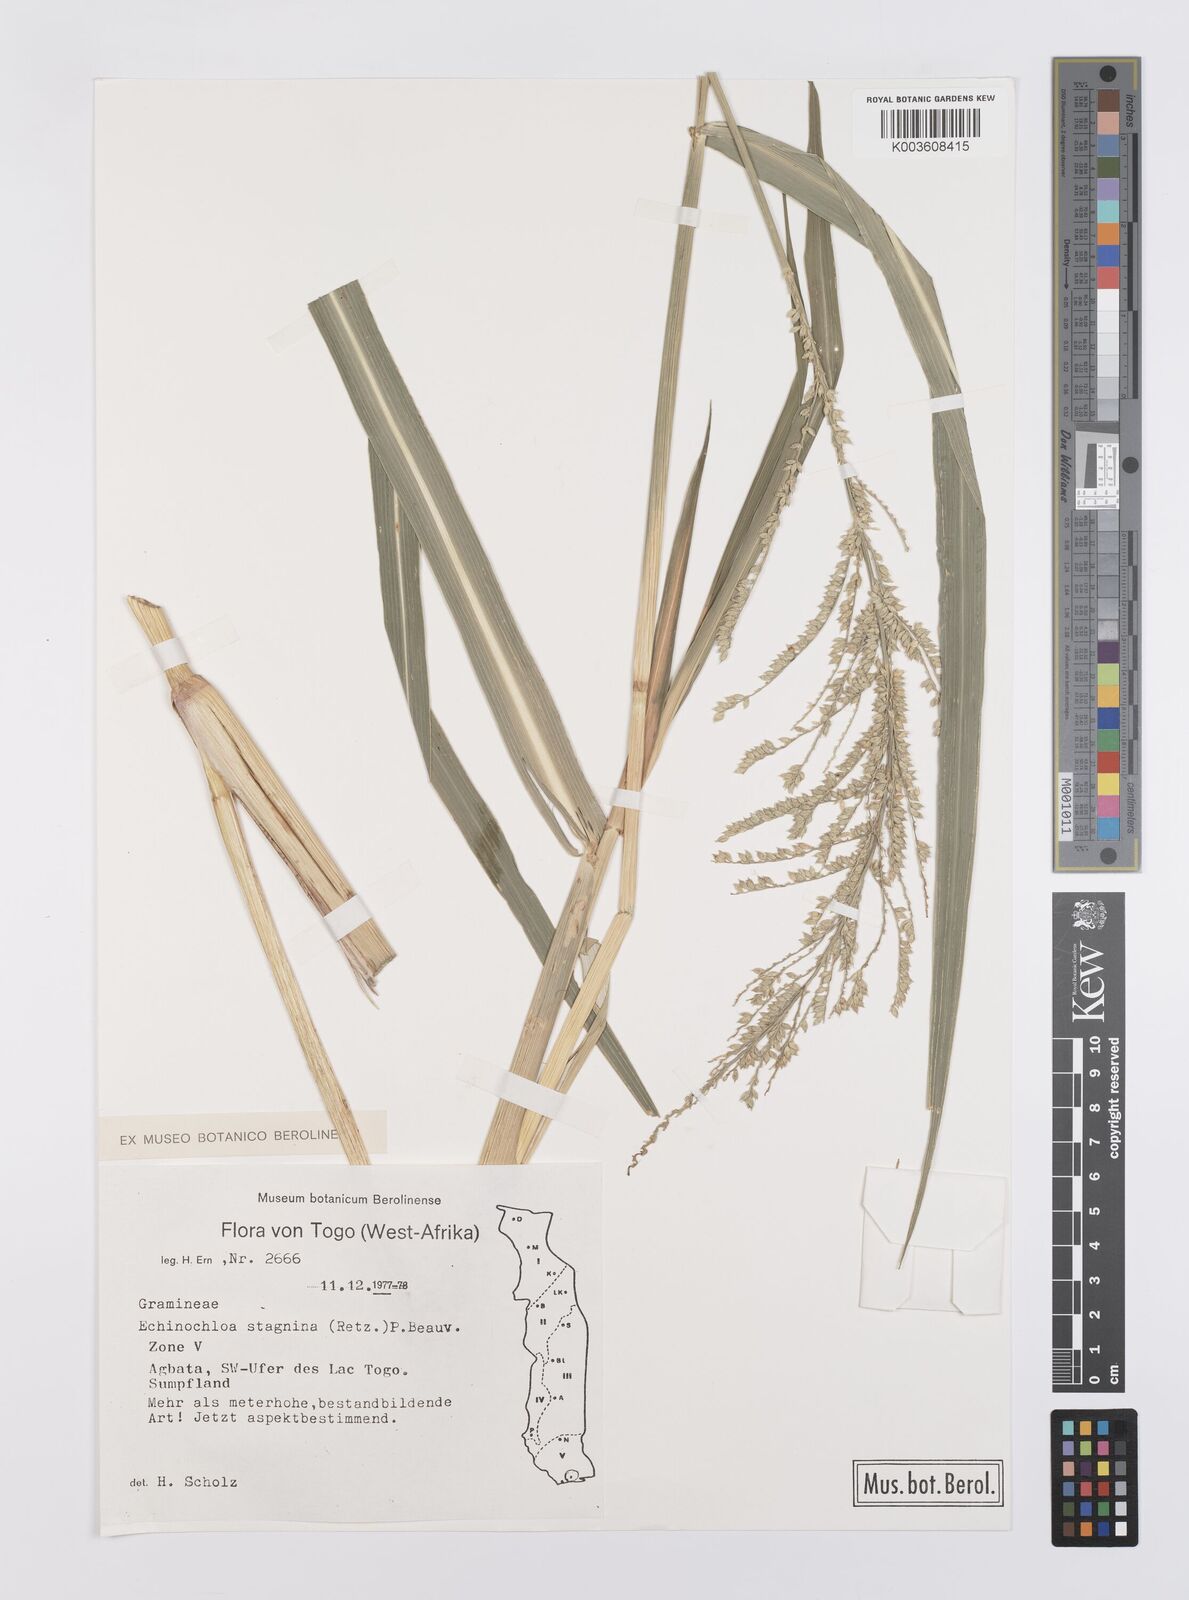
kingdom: Plantae
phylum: Tracheophyta
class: Liliopsida
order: Poales
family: Poaceae
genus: Echinochloa
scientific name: Echinochloa pyramidalis
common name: Antelope grass
